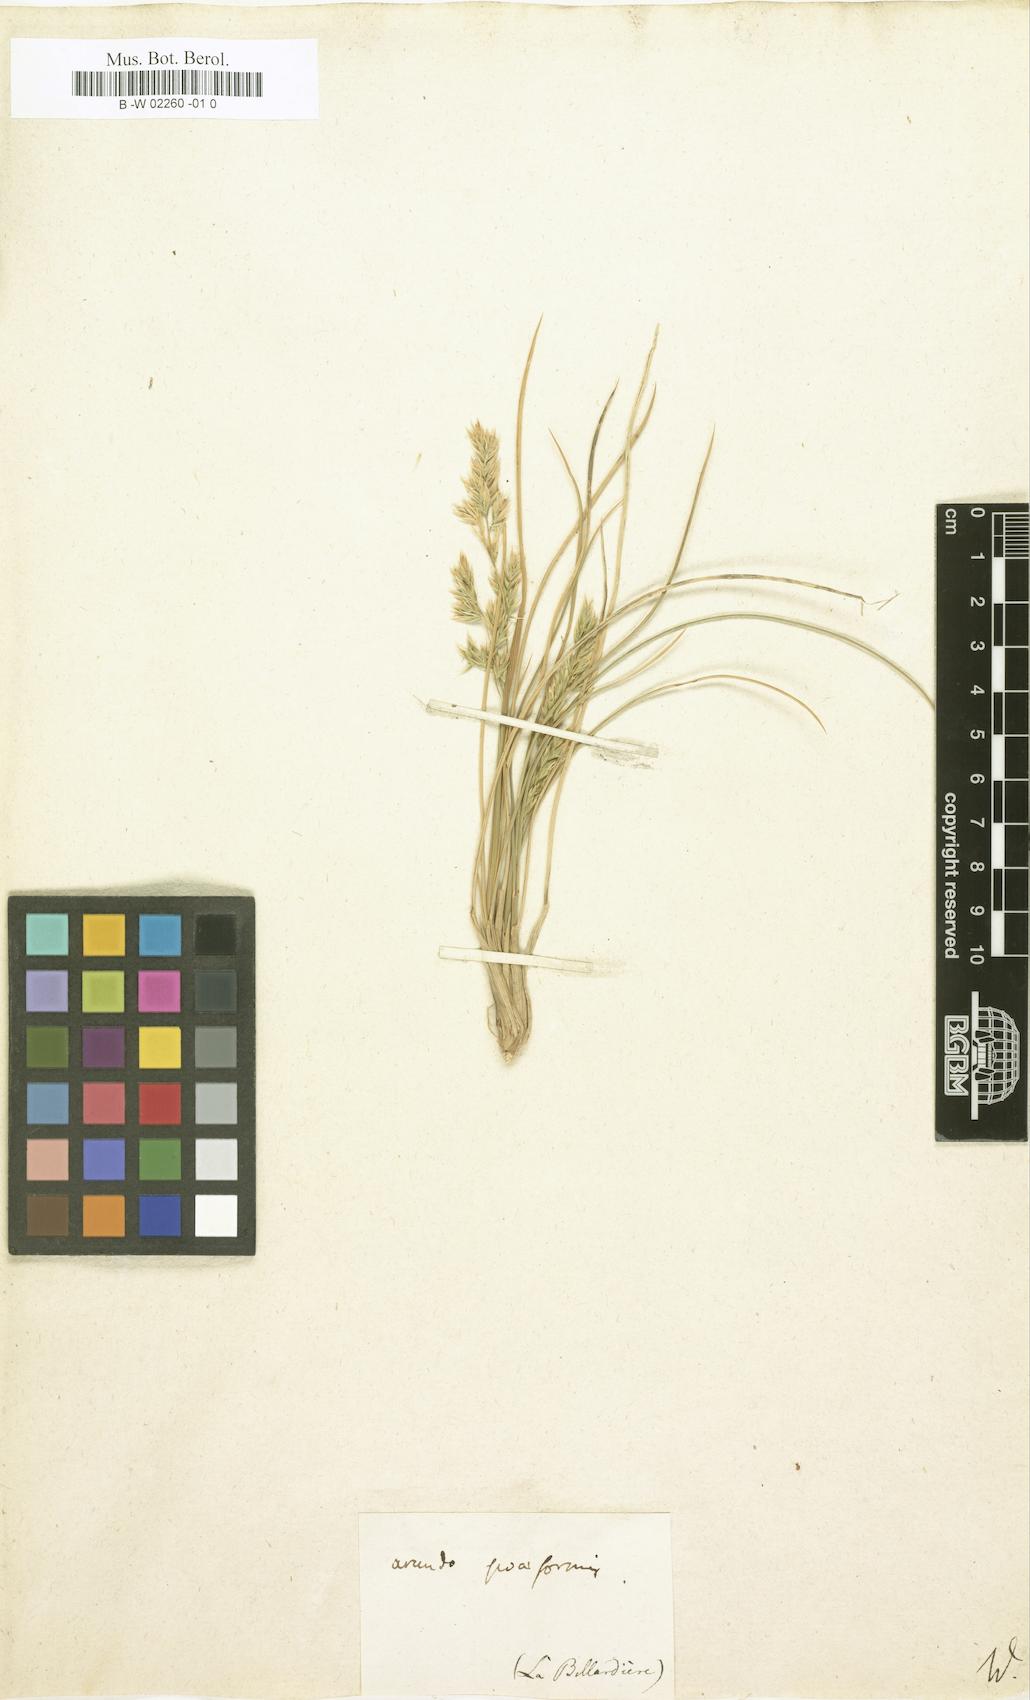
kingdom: Plantae
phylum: Tracheophyta
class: Liliopsida
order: Poales
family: Poaceae
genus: Arundo
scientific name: Arundo
